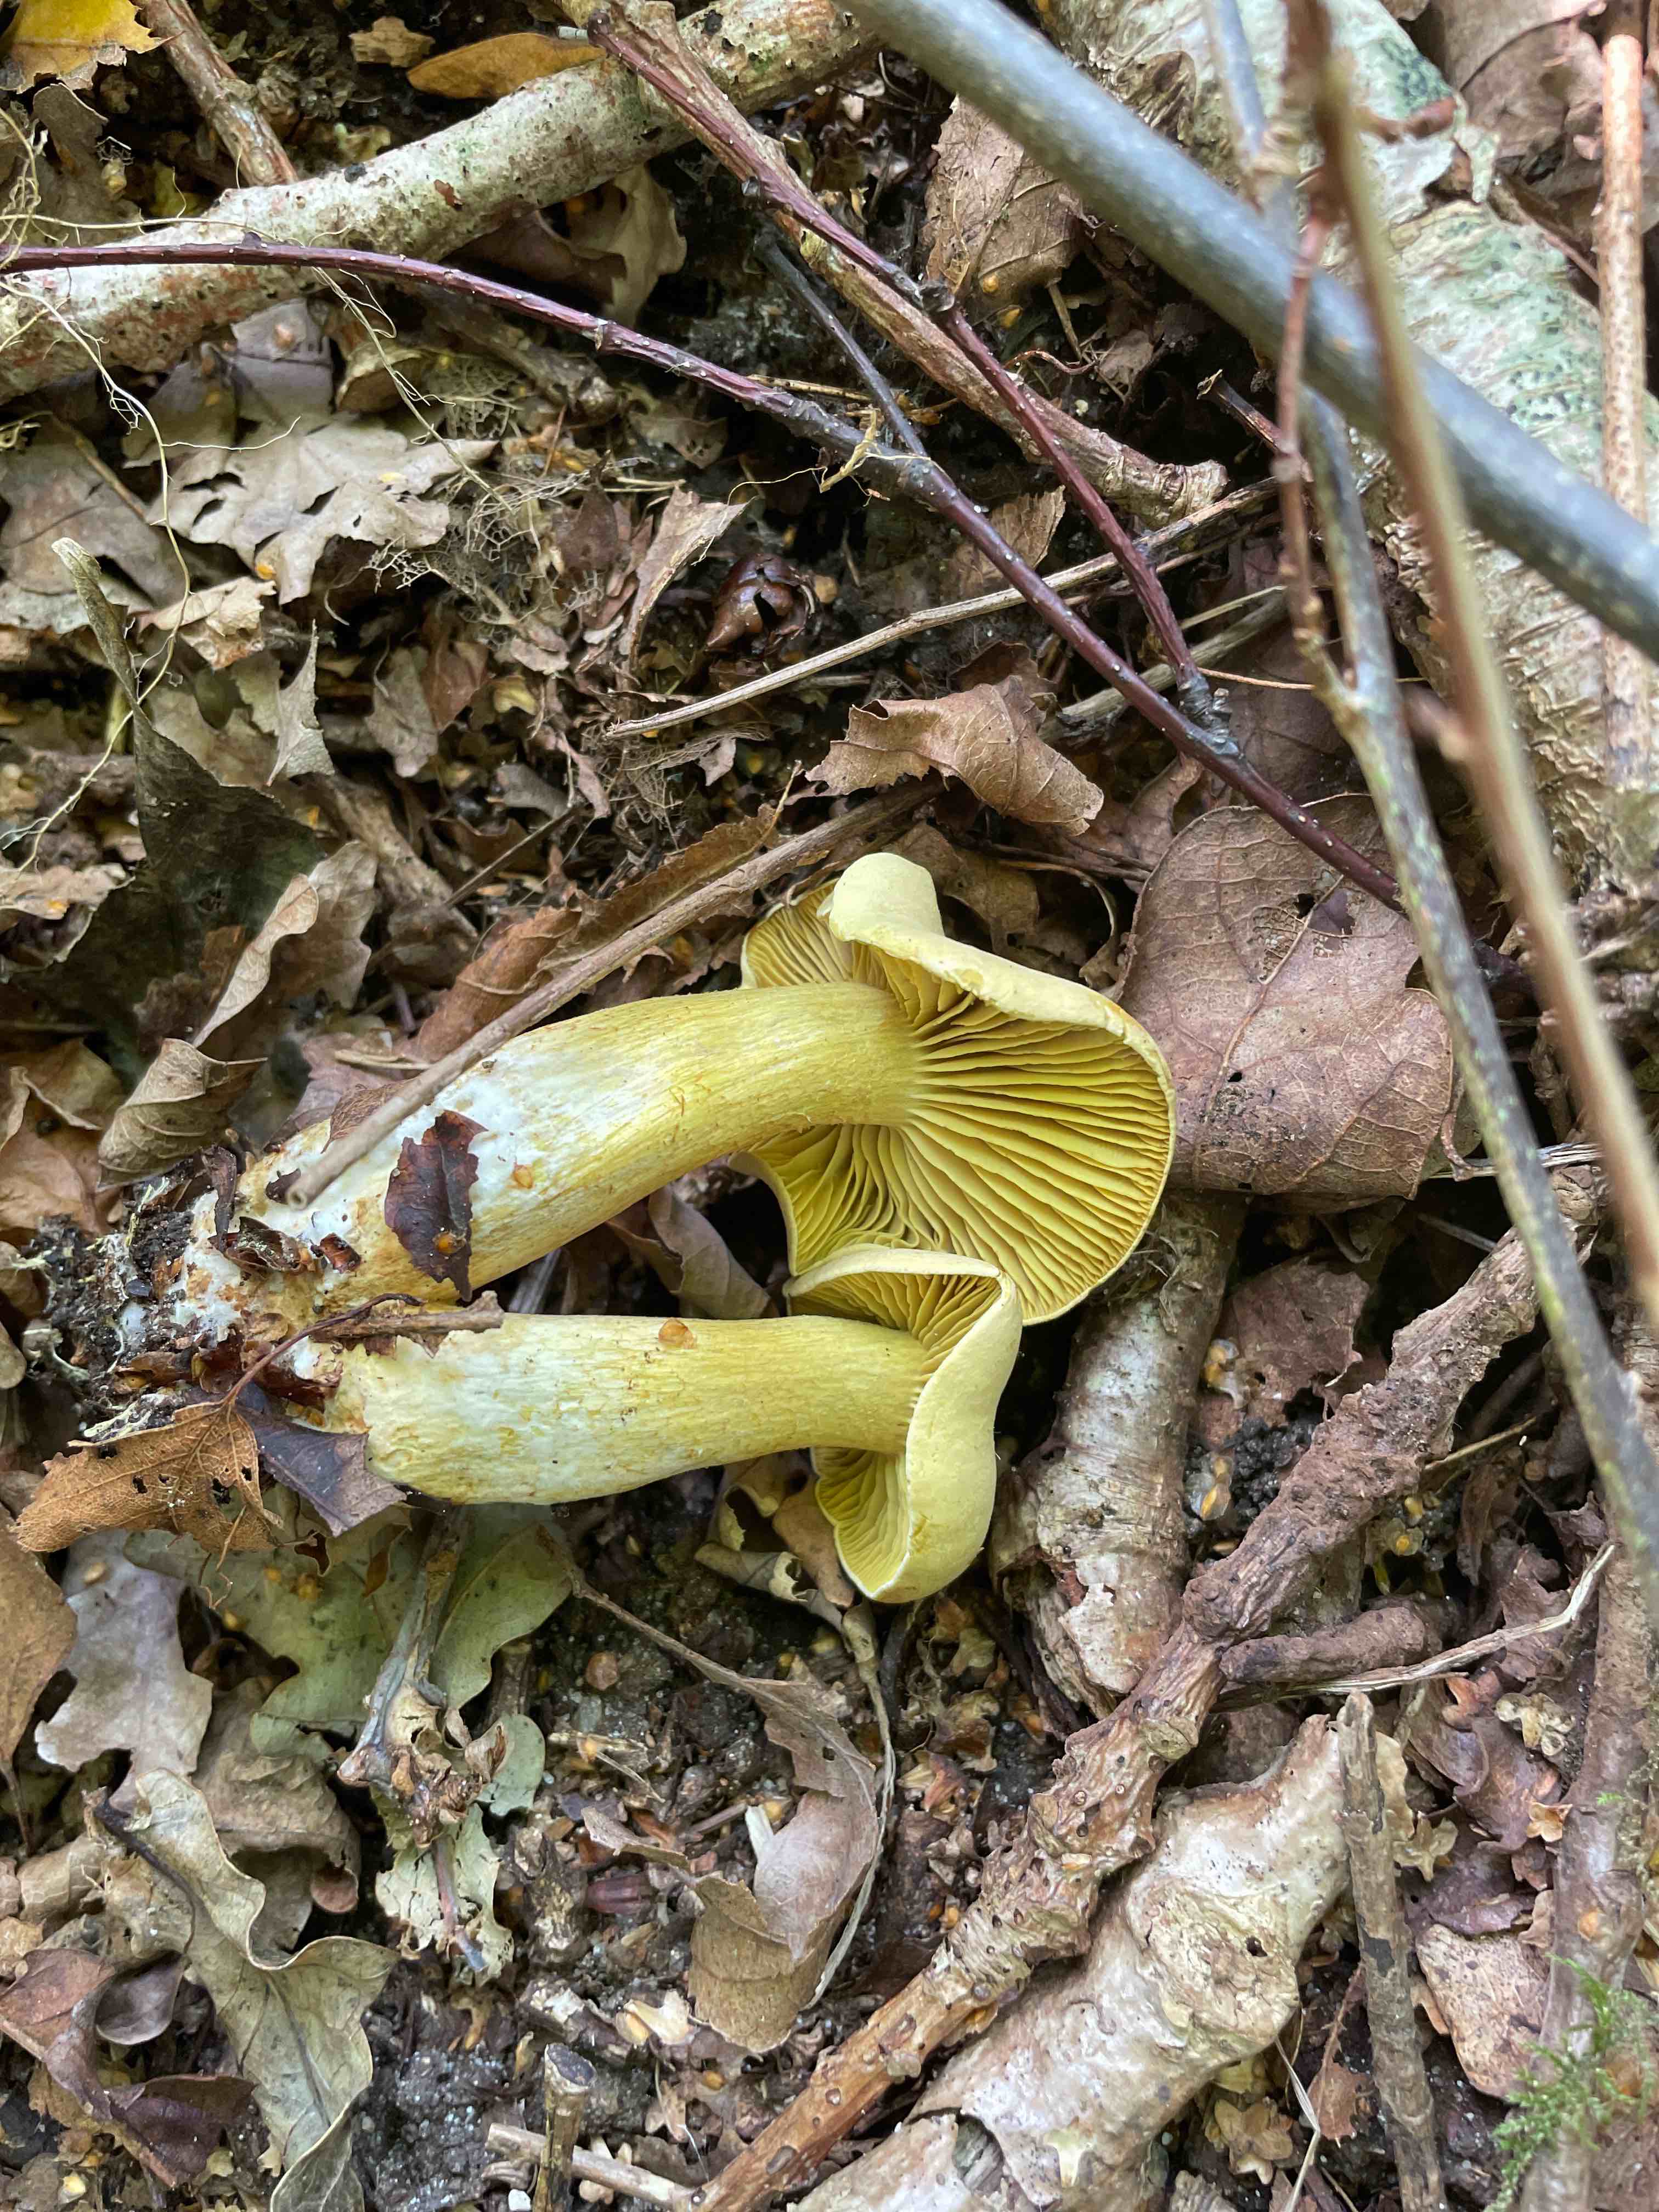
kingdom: Fungi
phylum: Basidiomycota
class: Agaricomycetes
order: Agaricales
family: Tricholomataceae
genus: Tricholoma
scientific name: Tricholoma sulphureum
